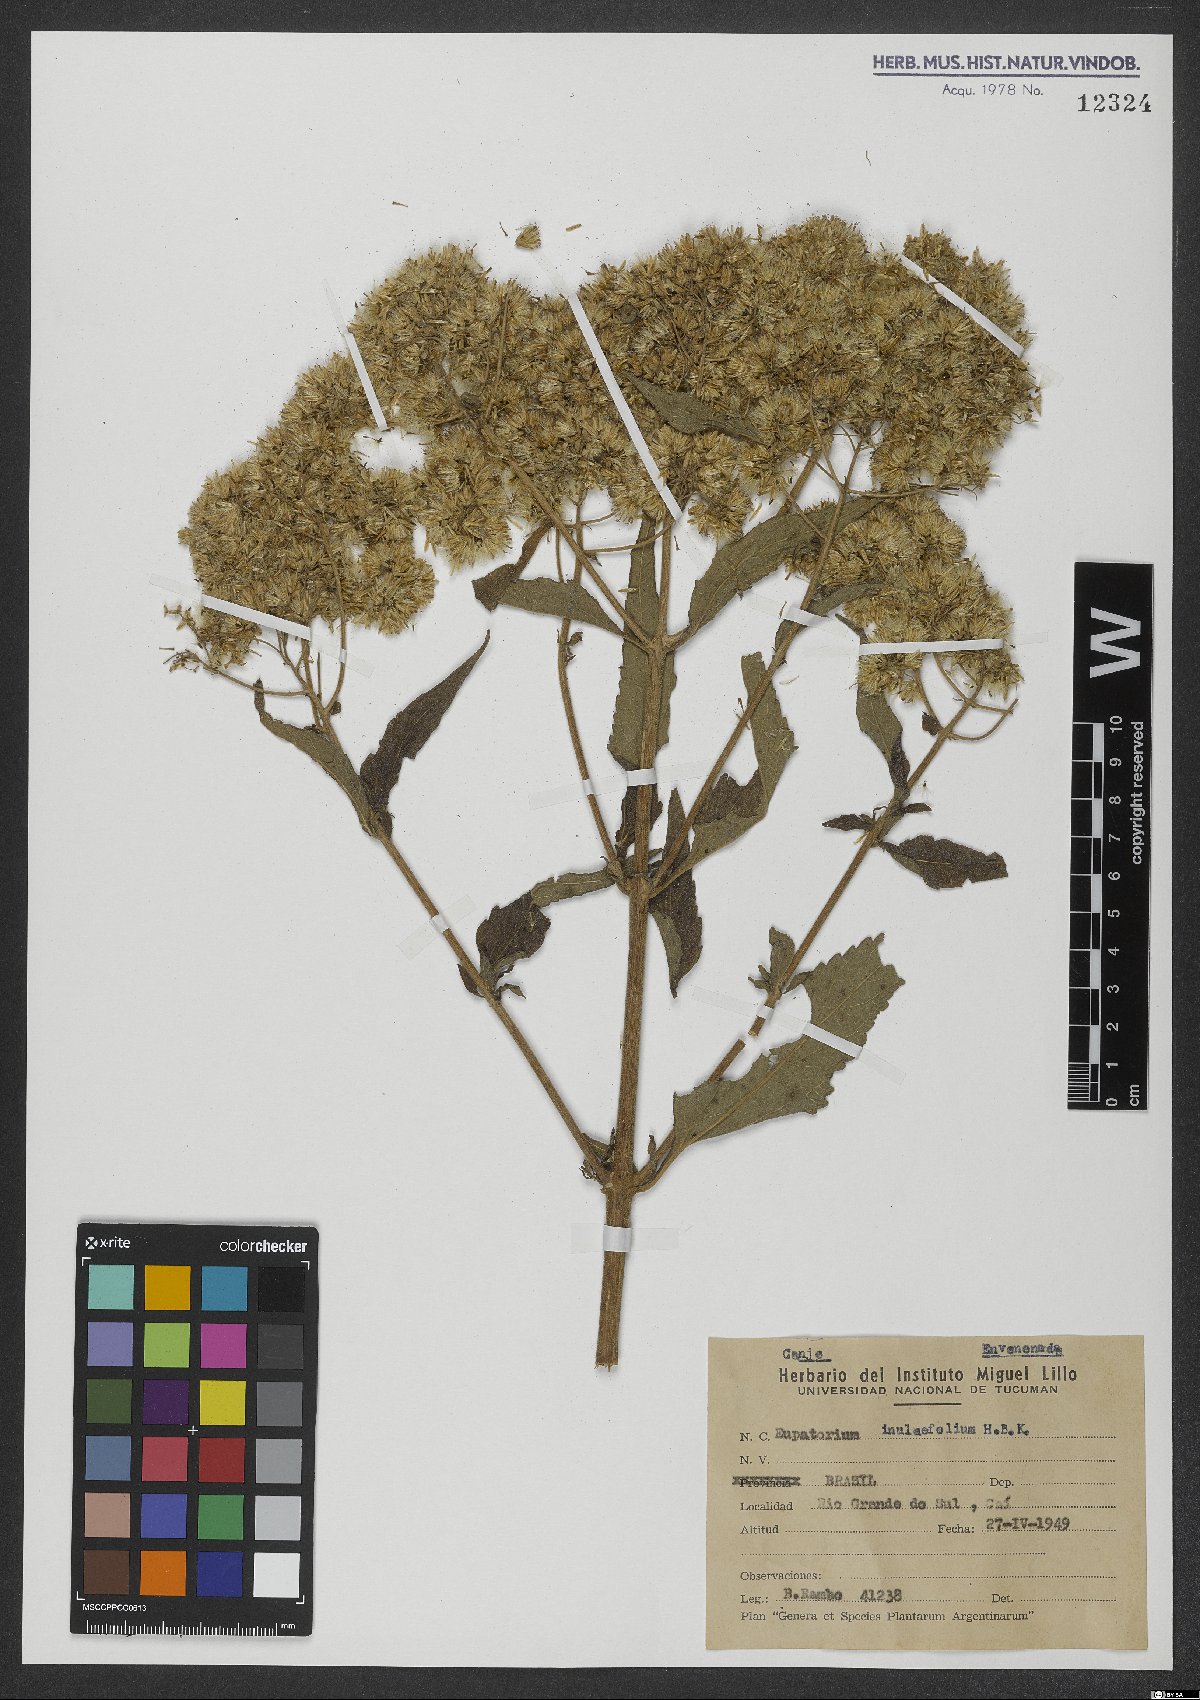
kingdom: Plantae
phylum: Tracheophyta
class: Magnoliopsida
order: Asterales
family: Asteraceae
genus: Austroeupatorium
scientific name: Austroeupatorium inulifolium
